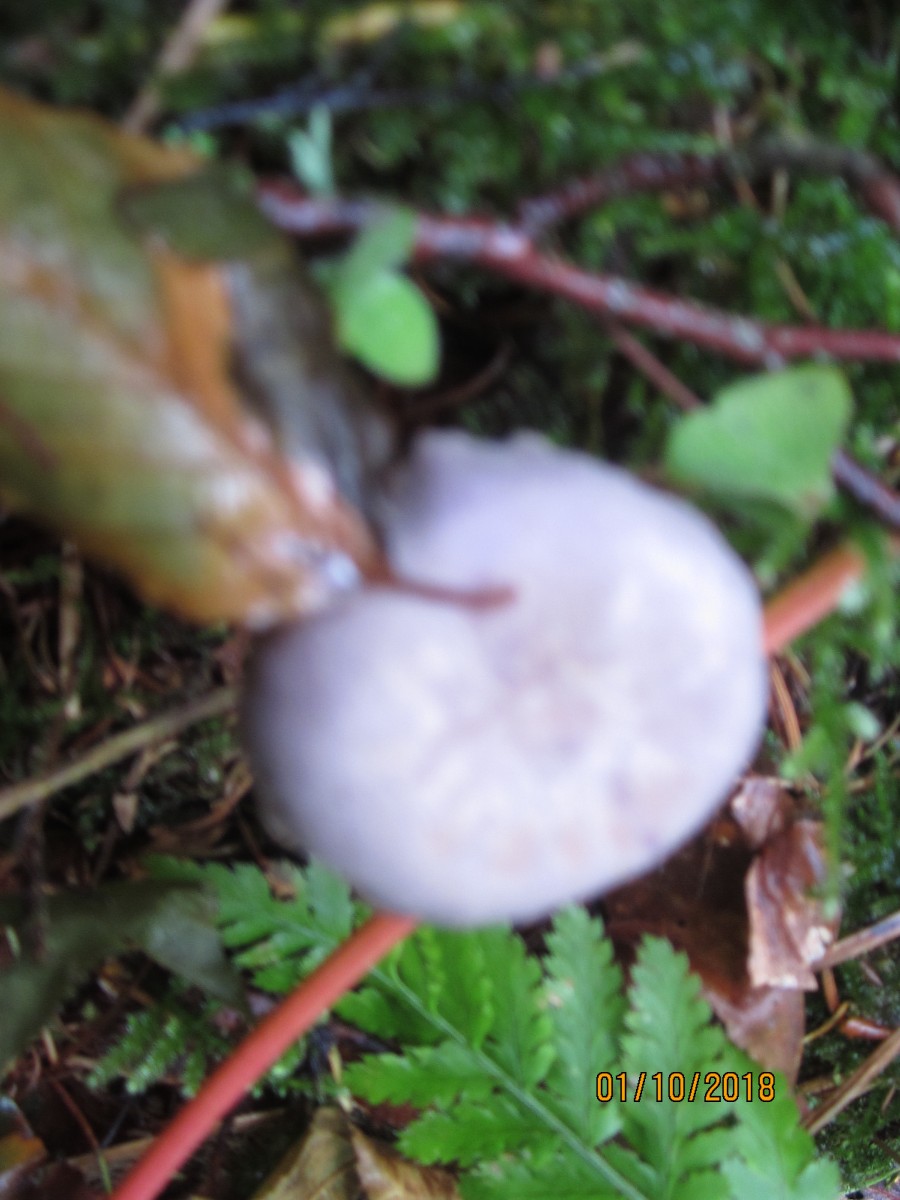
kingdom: Fungi
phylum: Basidiomycota
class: Agaricomycetes
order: Agaricales
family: Hydnangiaceae
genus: Laccaria
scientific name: Laccaria amethystina
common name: violet ametysthat
